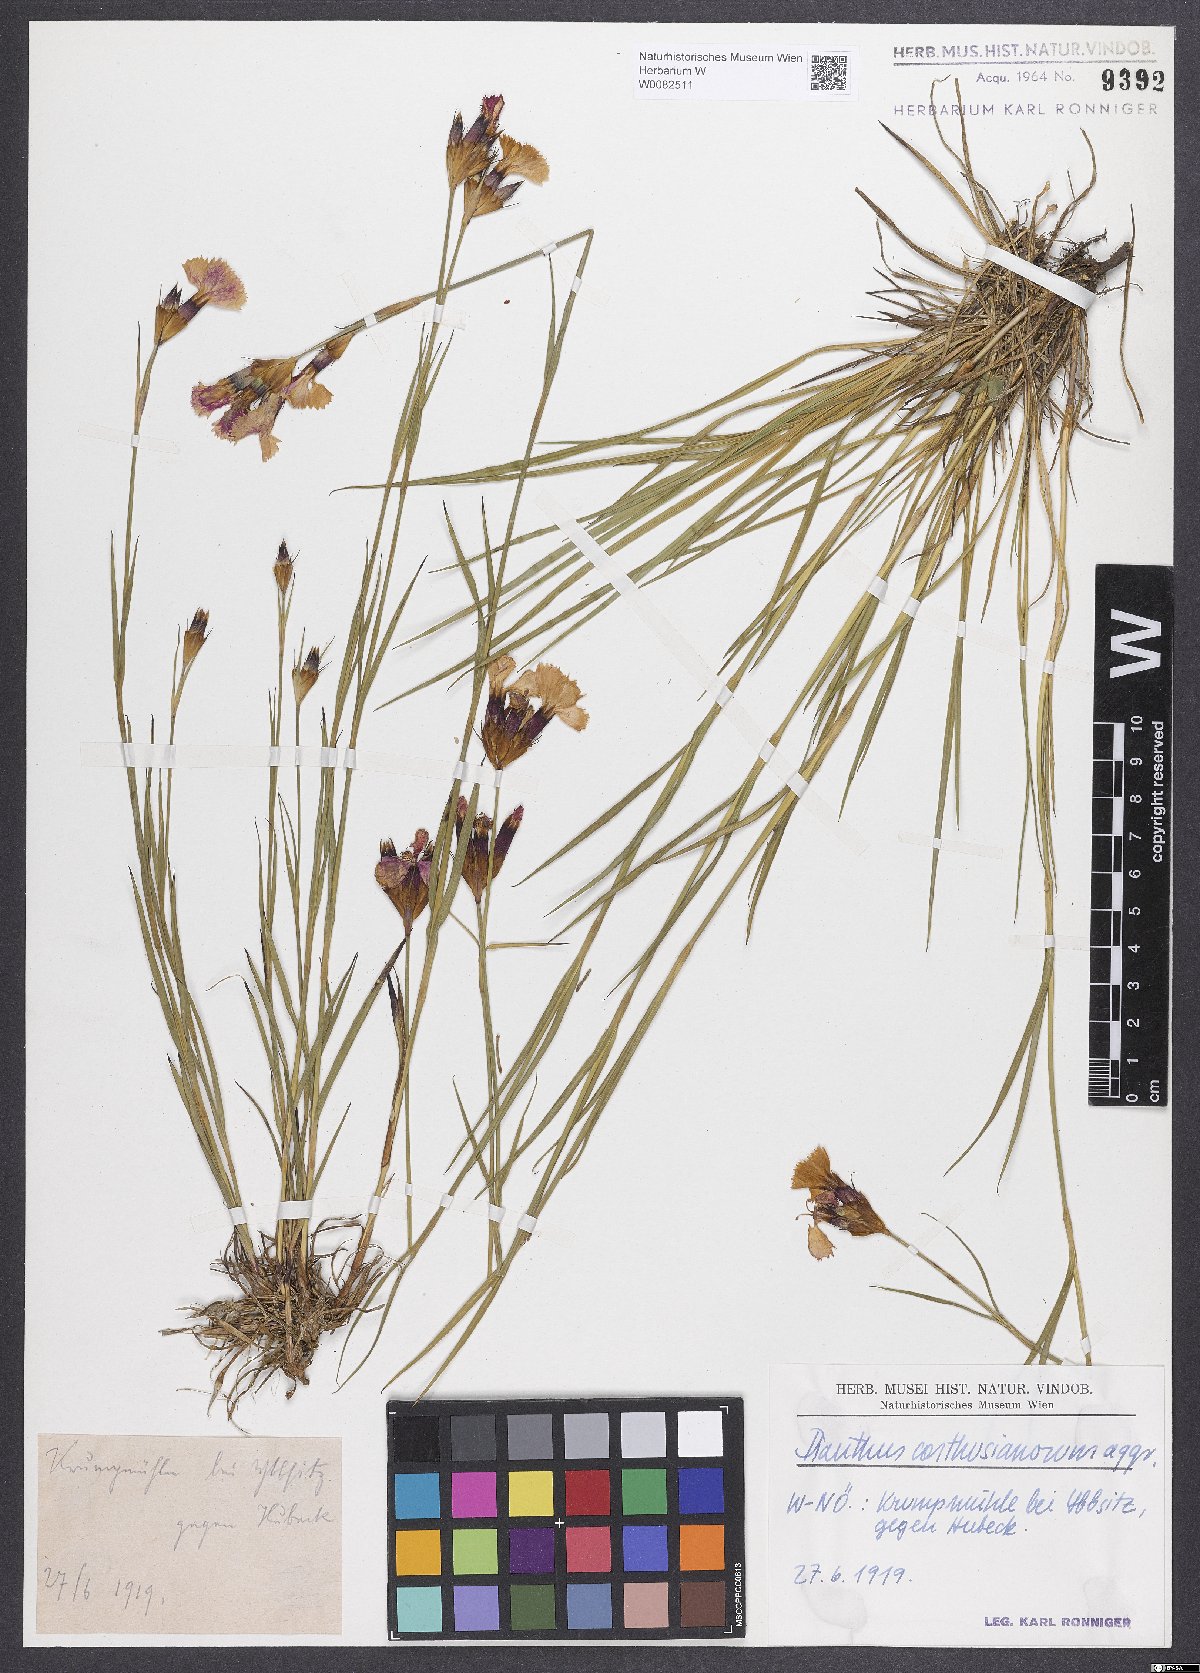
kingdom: Plantae
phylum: Tracheophyta
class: Magnoliopsida
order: Caryophyllales
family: Caryophyllaceae
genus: Dianthus
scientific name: Dianthus carthusianorum
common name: Carthusian pink
